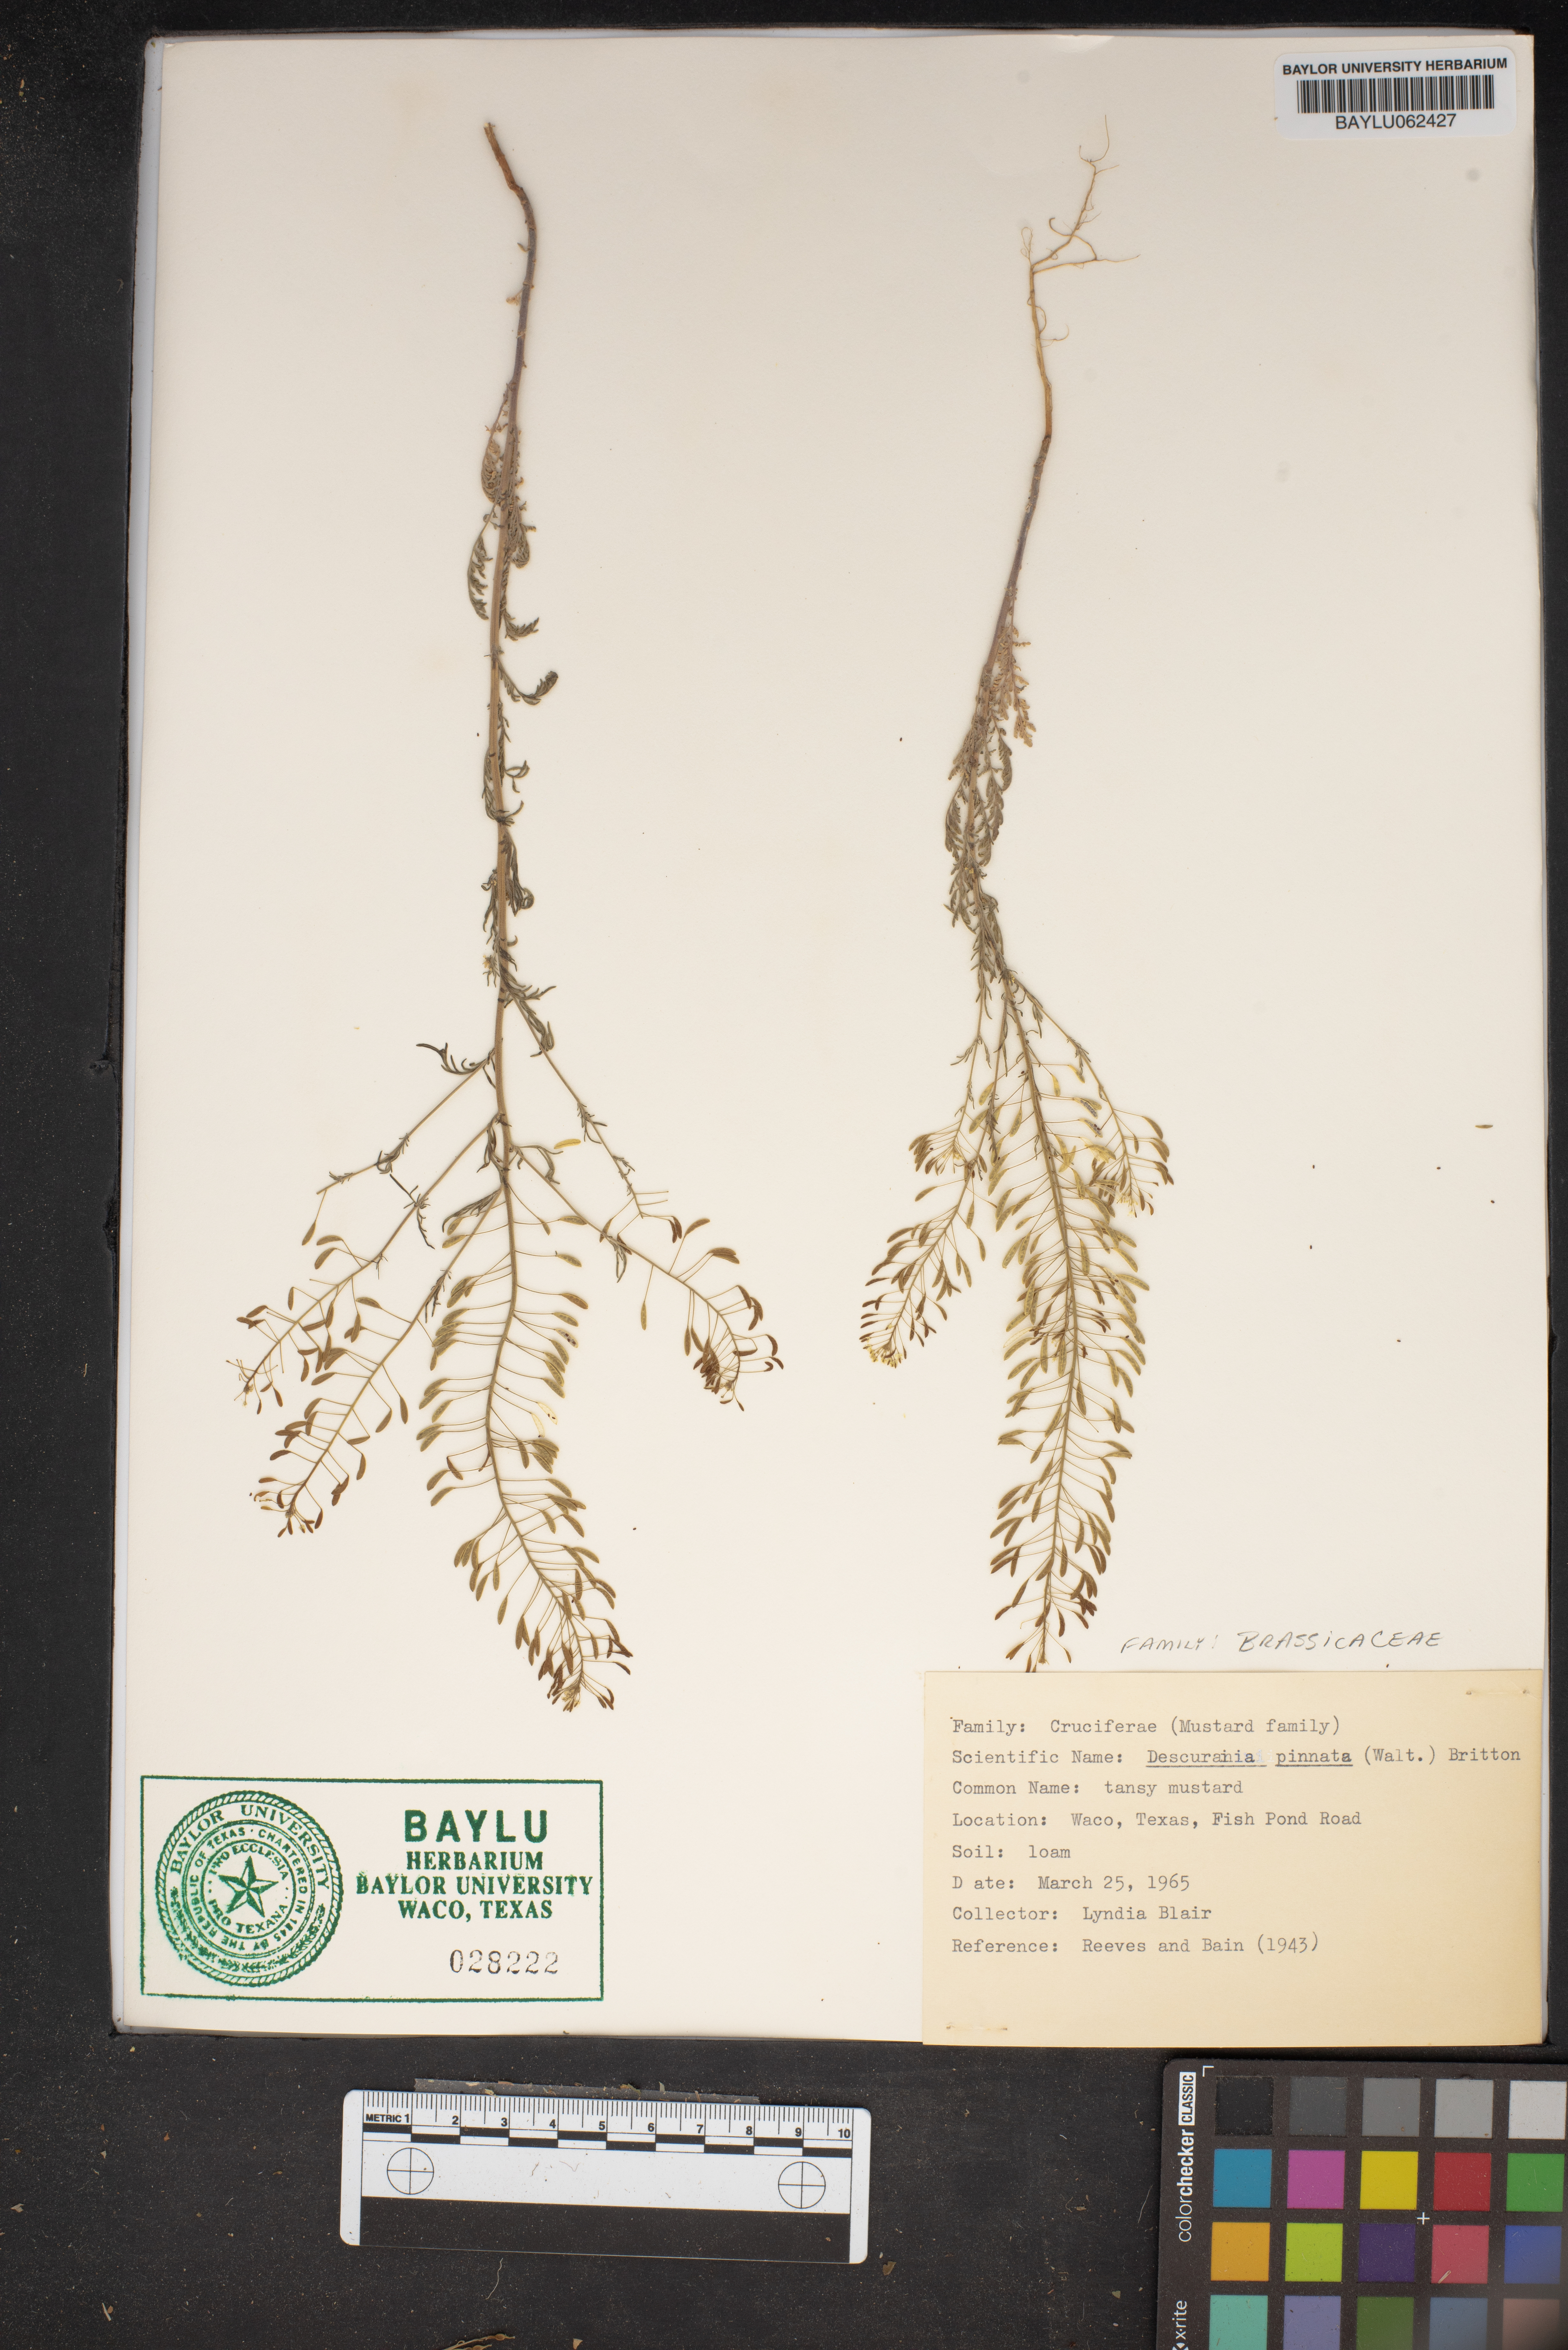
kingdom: Plantae
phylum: Tracheophyta
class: Magnoliopsida
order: Brassicales
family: Brassicaceae
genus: Descurainia
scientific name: Descurainia pinnata
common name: Western tansy mustard
